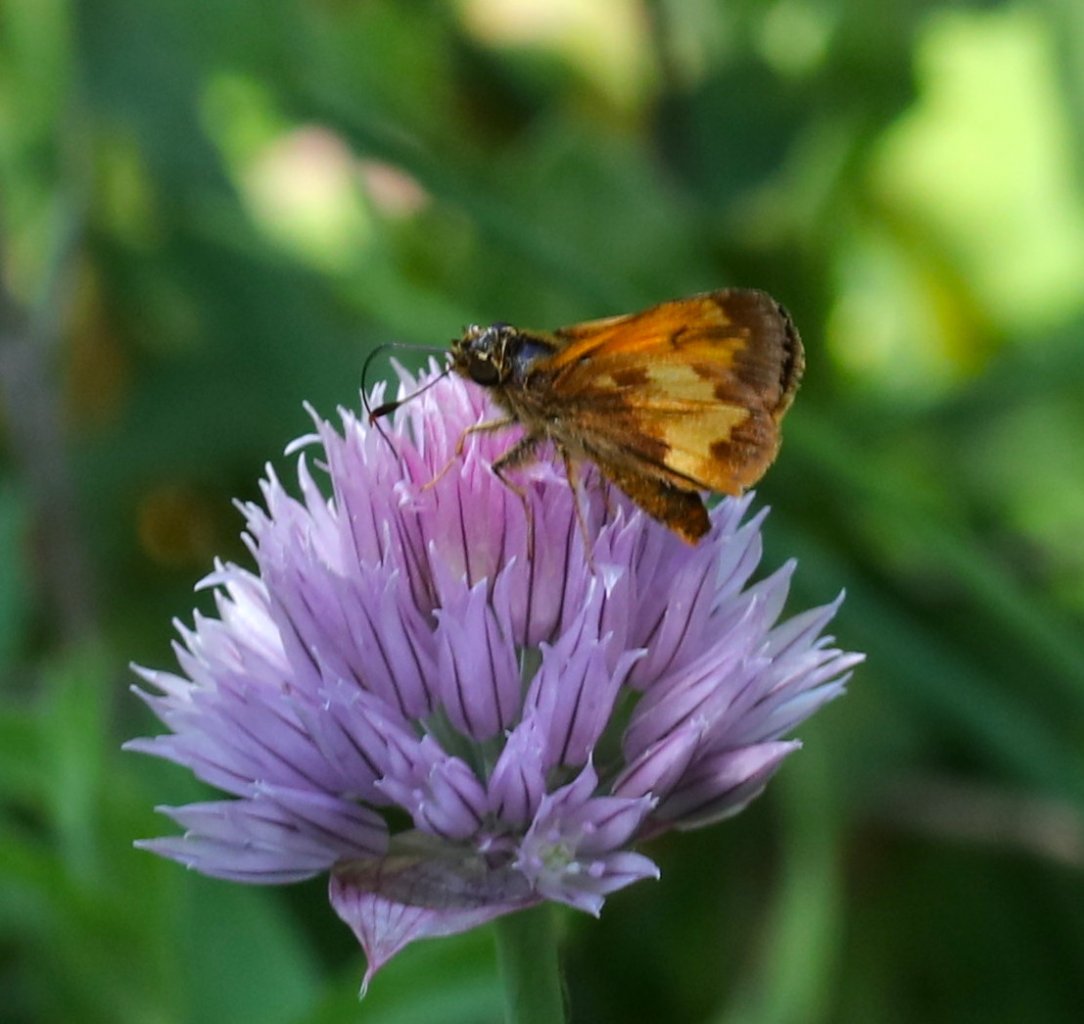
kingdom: Animalia
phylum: Arthropoda
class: Insecta
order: Lepidoptera
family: Hesperiidae
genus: Lon
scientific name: Lon hobomok
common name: Hobomok Skipper
